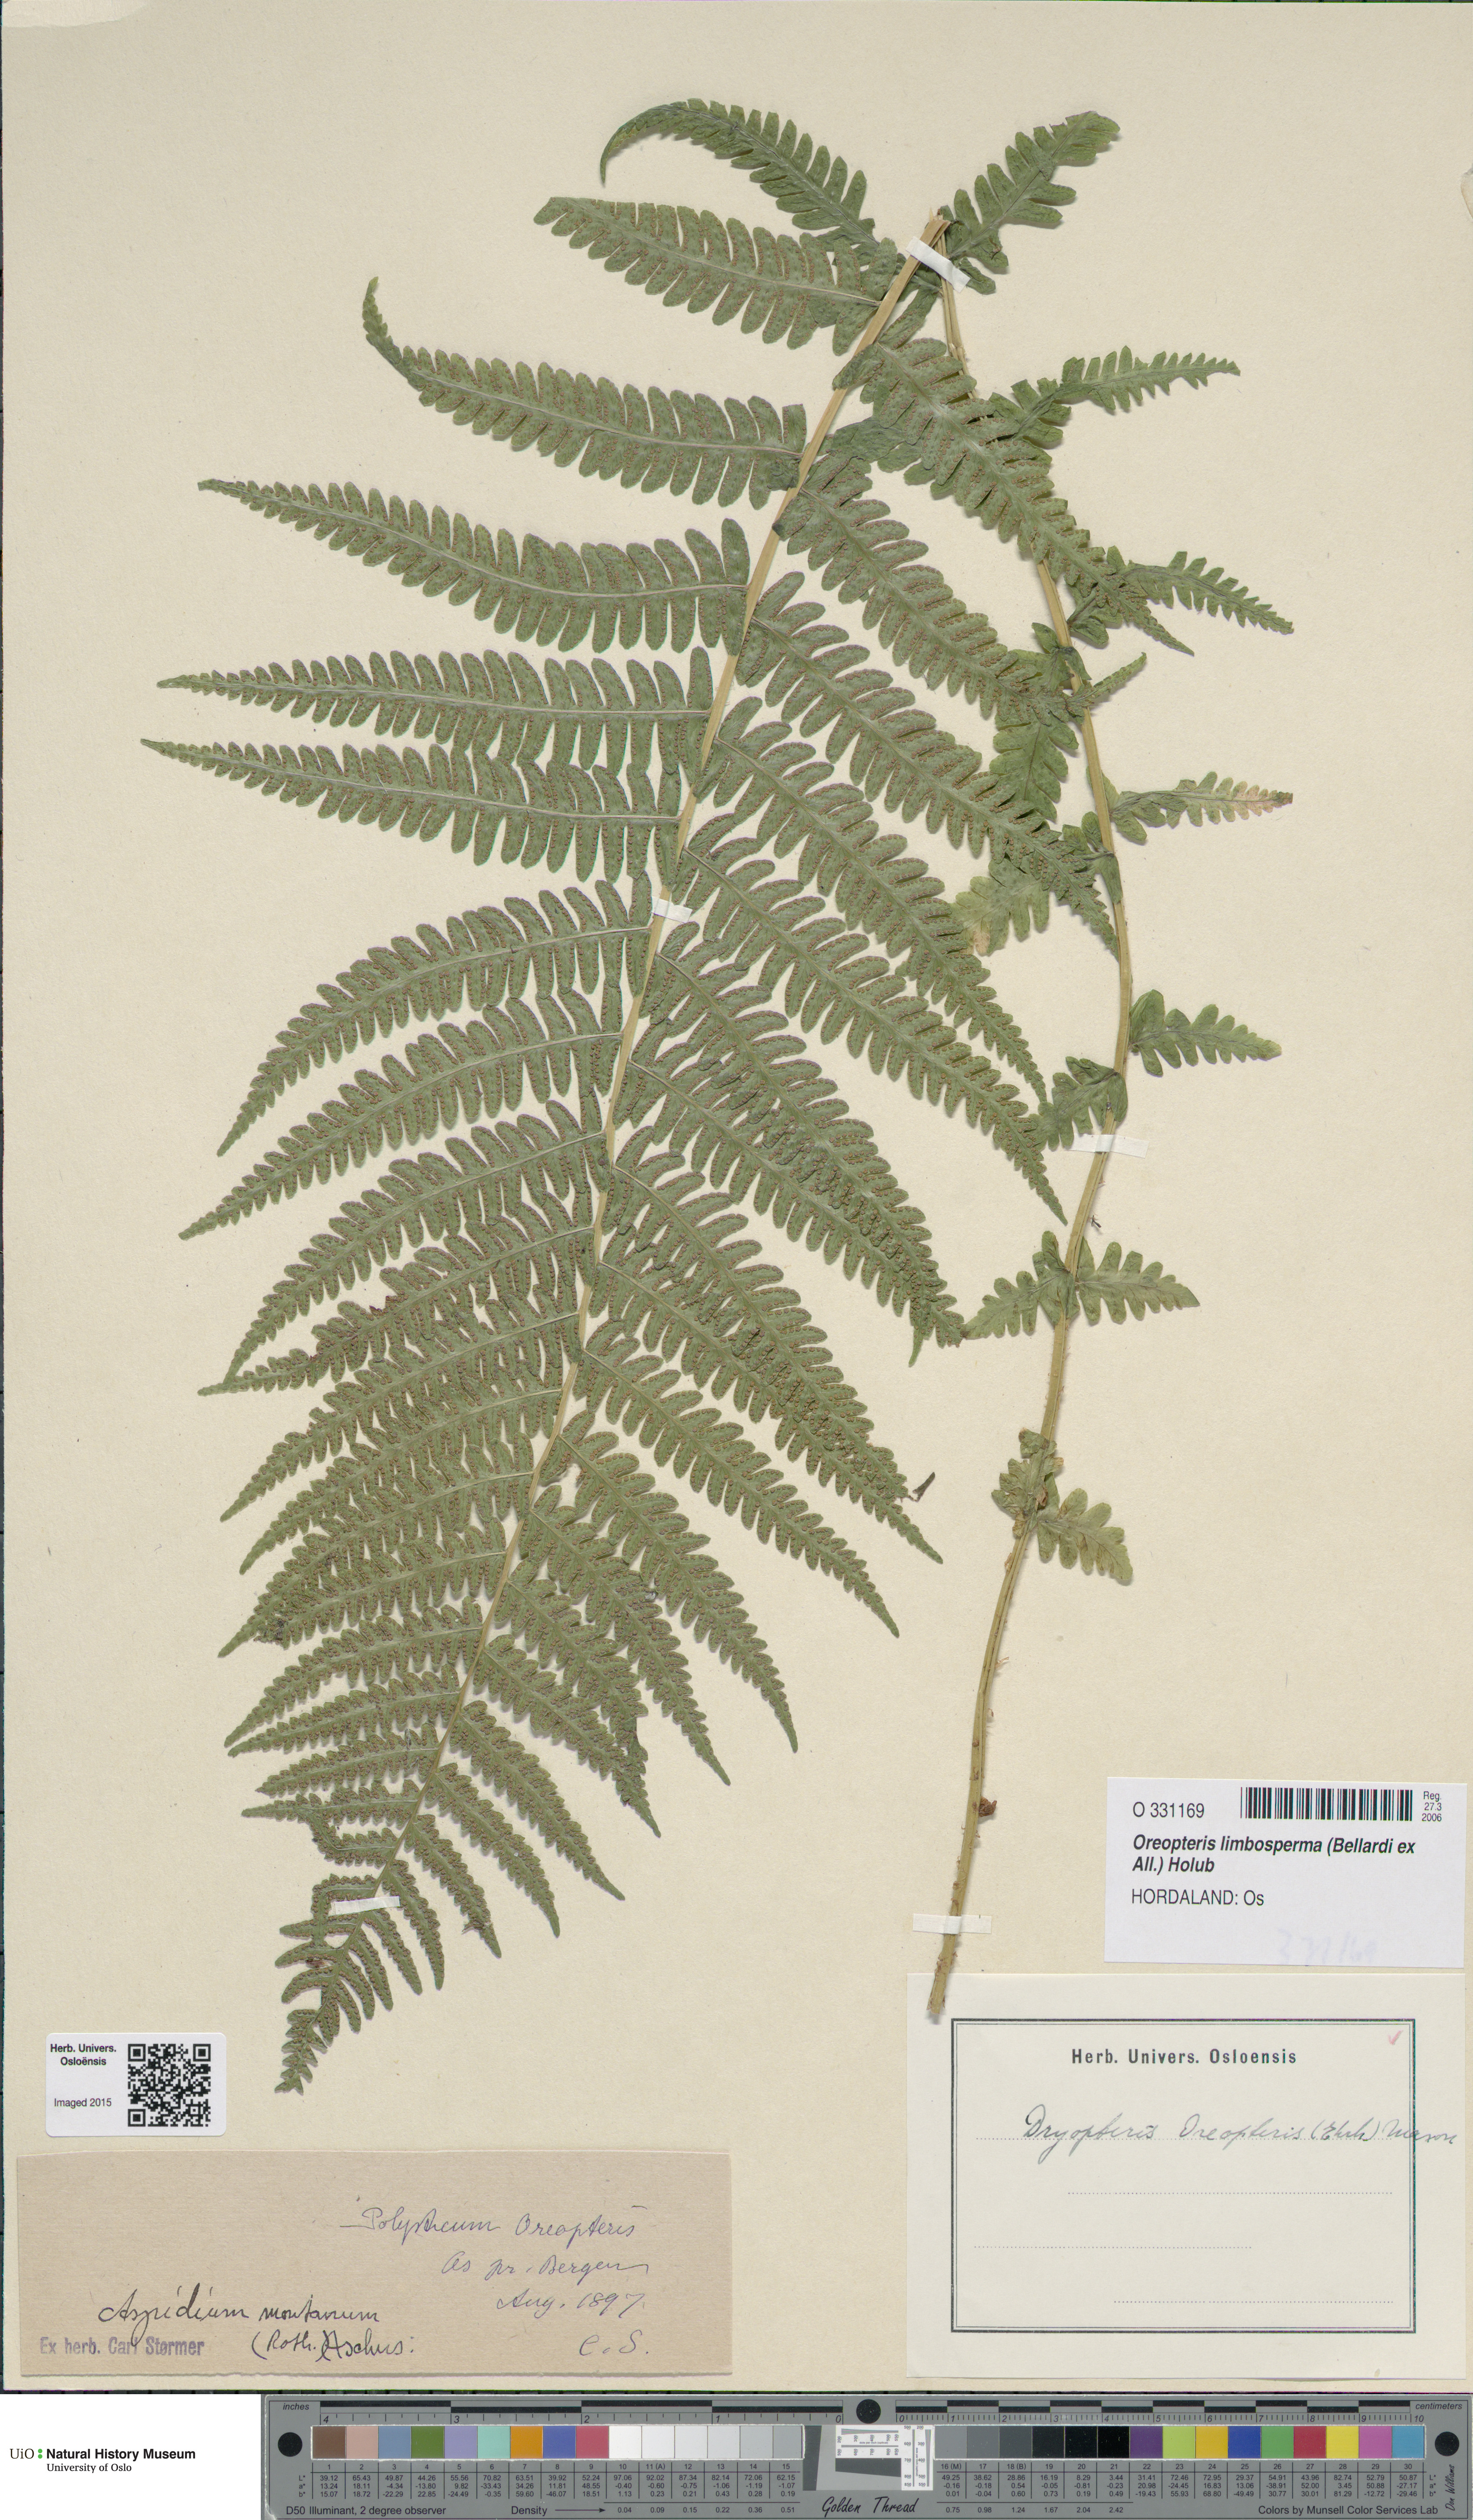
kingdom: Plantae
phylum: Tracheophyta
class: Polypodiopsida
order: Polypodiales
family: Thelypteridaceae
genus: Oreopteris
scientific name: Oreopteris limbosperma
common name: Lemon-scented fern
